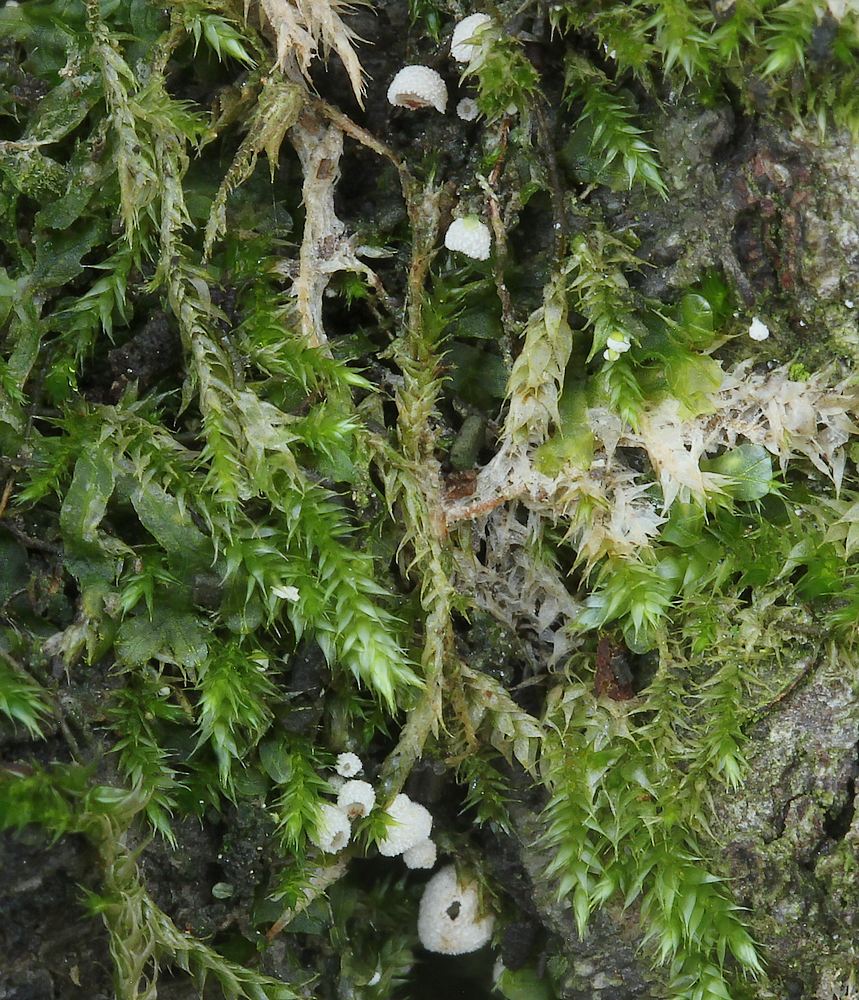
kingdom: Fungi
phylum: Basidiomycota
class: Agaricomycetes
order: Agaricales
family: Chromocyphellaceae
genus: Chromocyphella
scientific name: Chromocyphella muscicola
